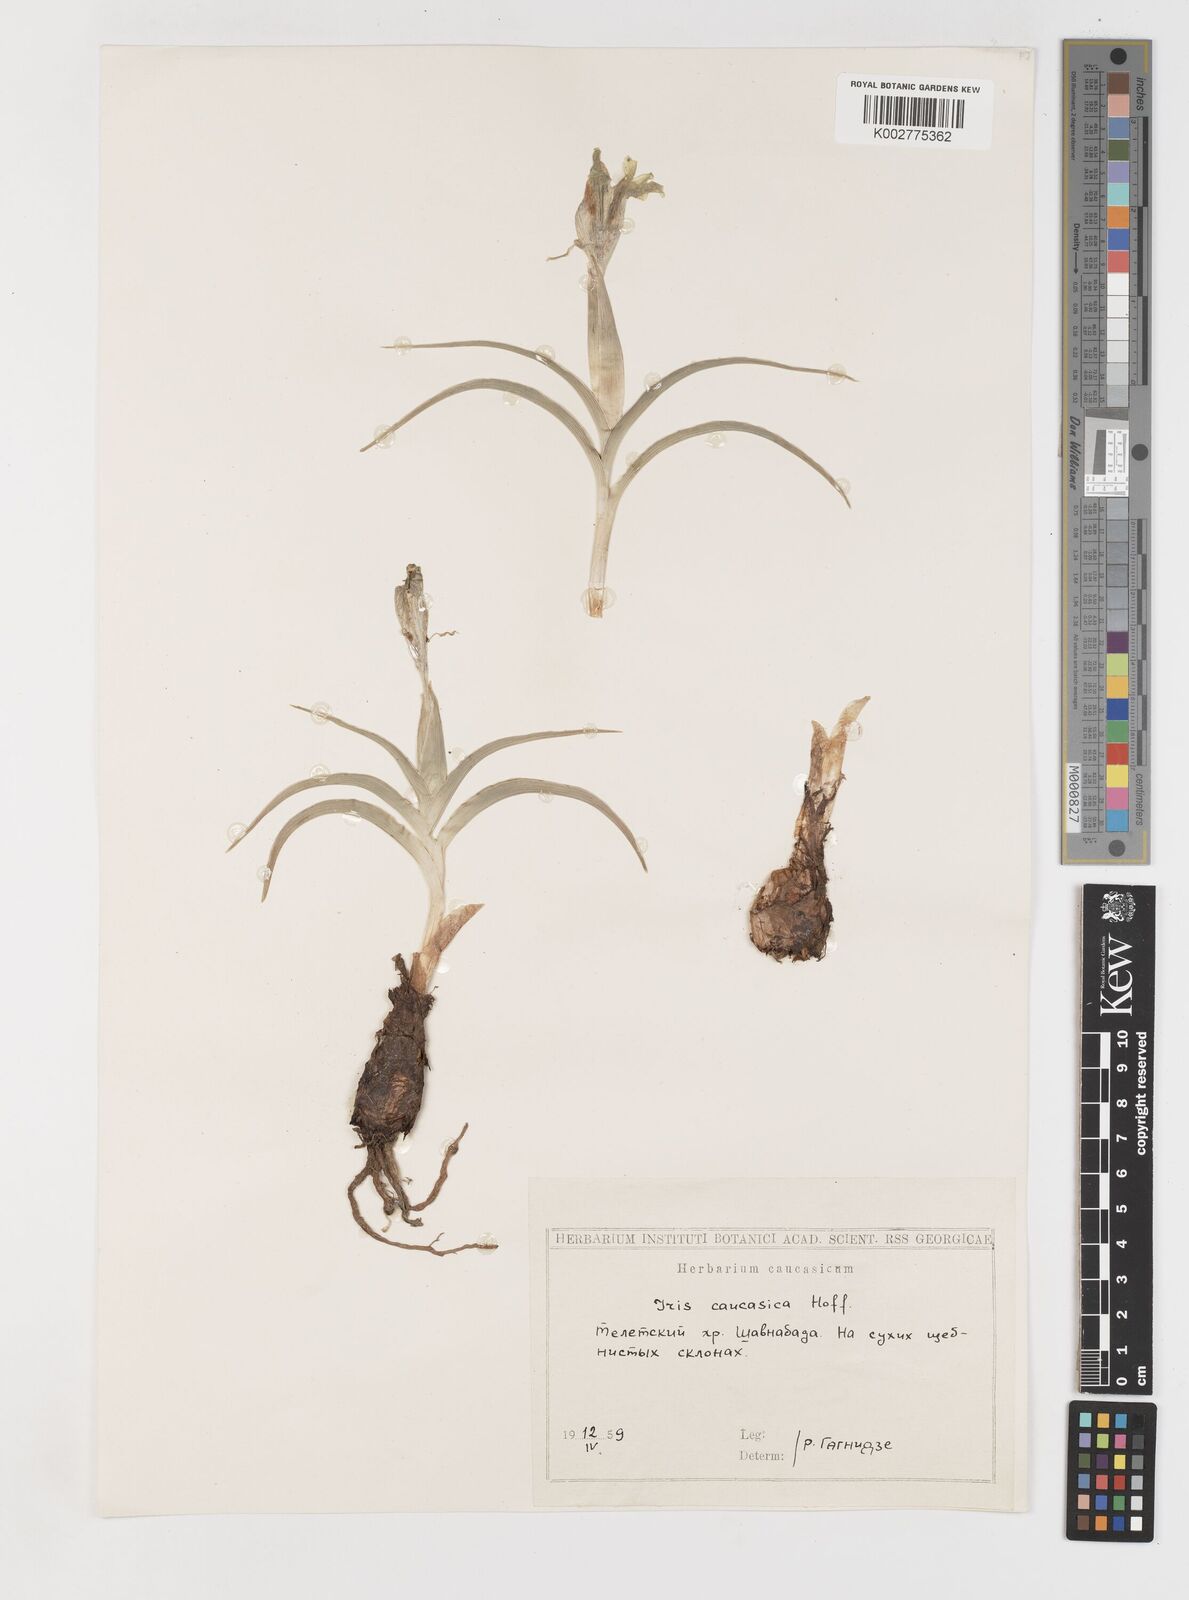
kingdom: Plantae
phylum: Tracheophyta
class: Liliopsida
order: Asparagales
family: Iridaceae
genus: Iris
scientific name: Iris caucasica
